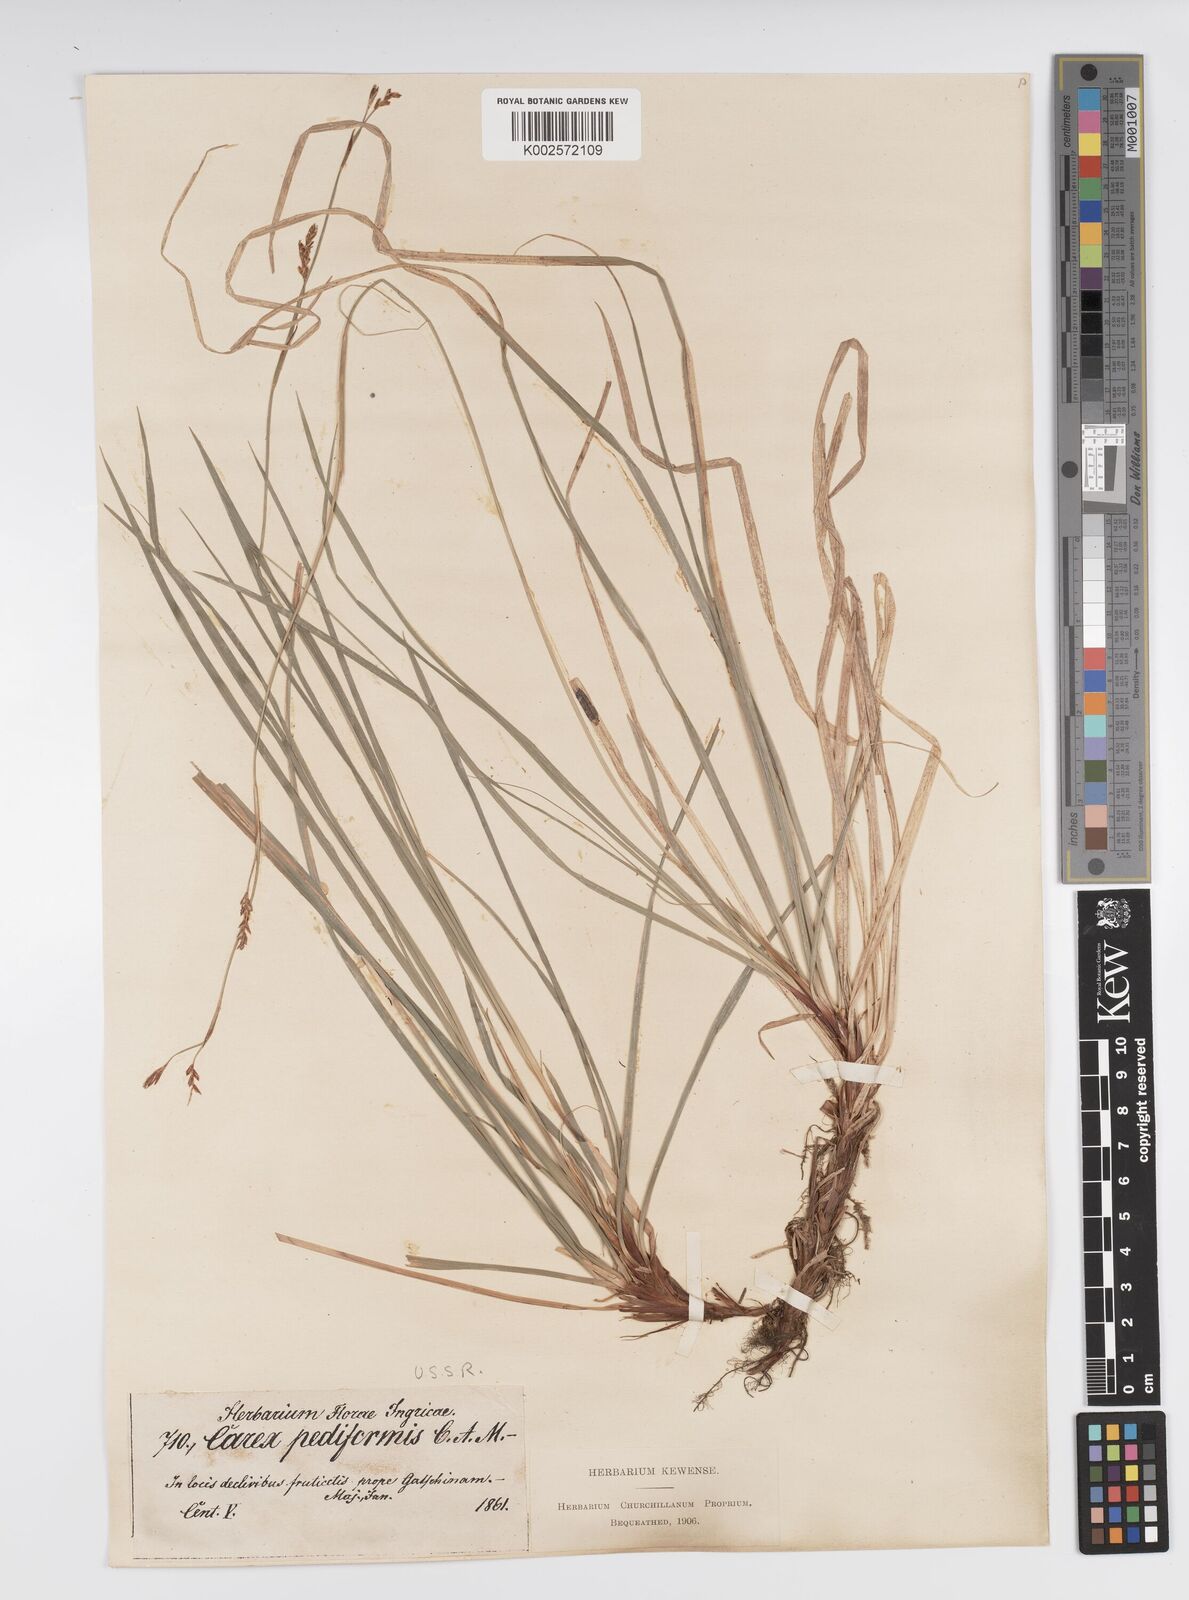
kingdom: Plantae
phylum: Tracheophyta
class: Liliopsida
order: Poales
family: Cyperaceae
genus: Carex
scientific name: Carex pediformis
